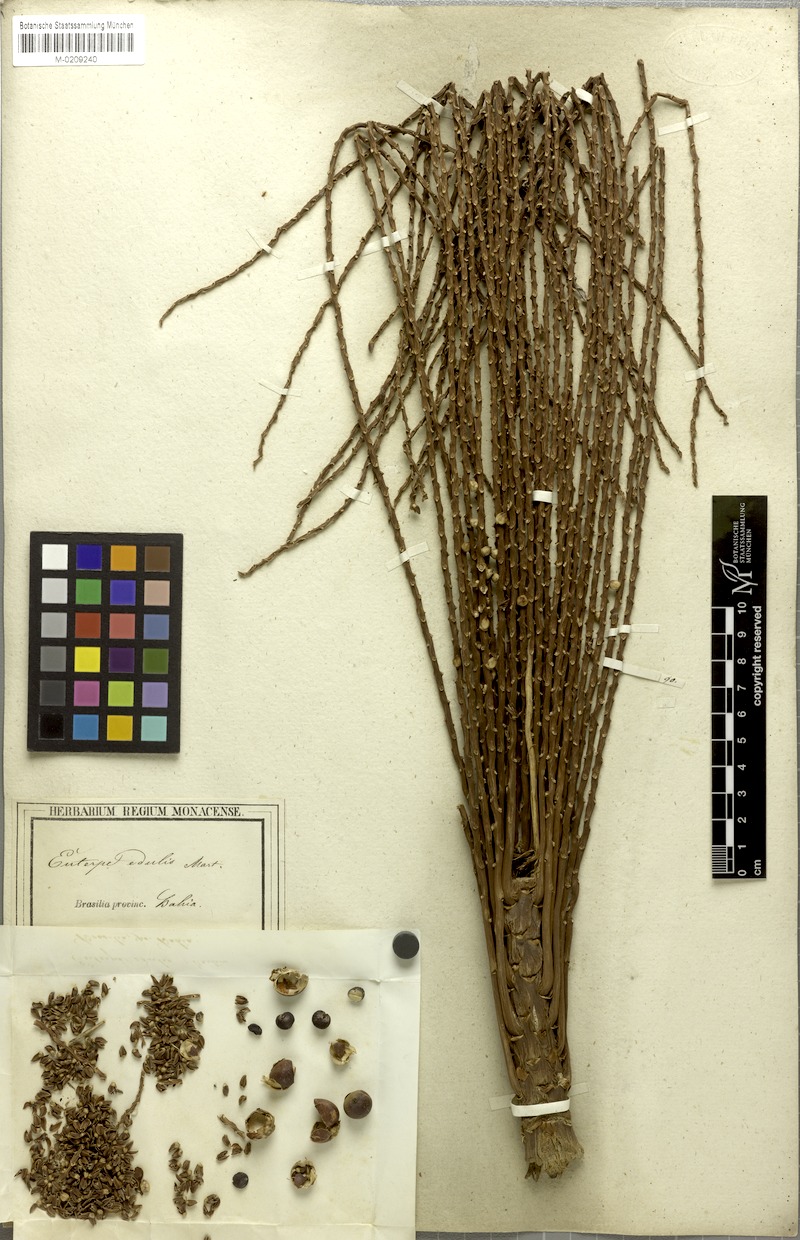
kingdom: Plantae
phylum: Tracheophyta
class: Liliopsida
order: Arecales
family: Arecaceae
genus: Euterpe
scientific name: Euterpe edulis
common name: Assai palm
